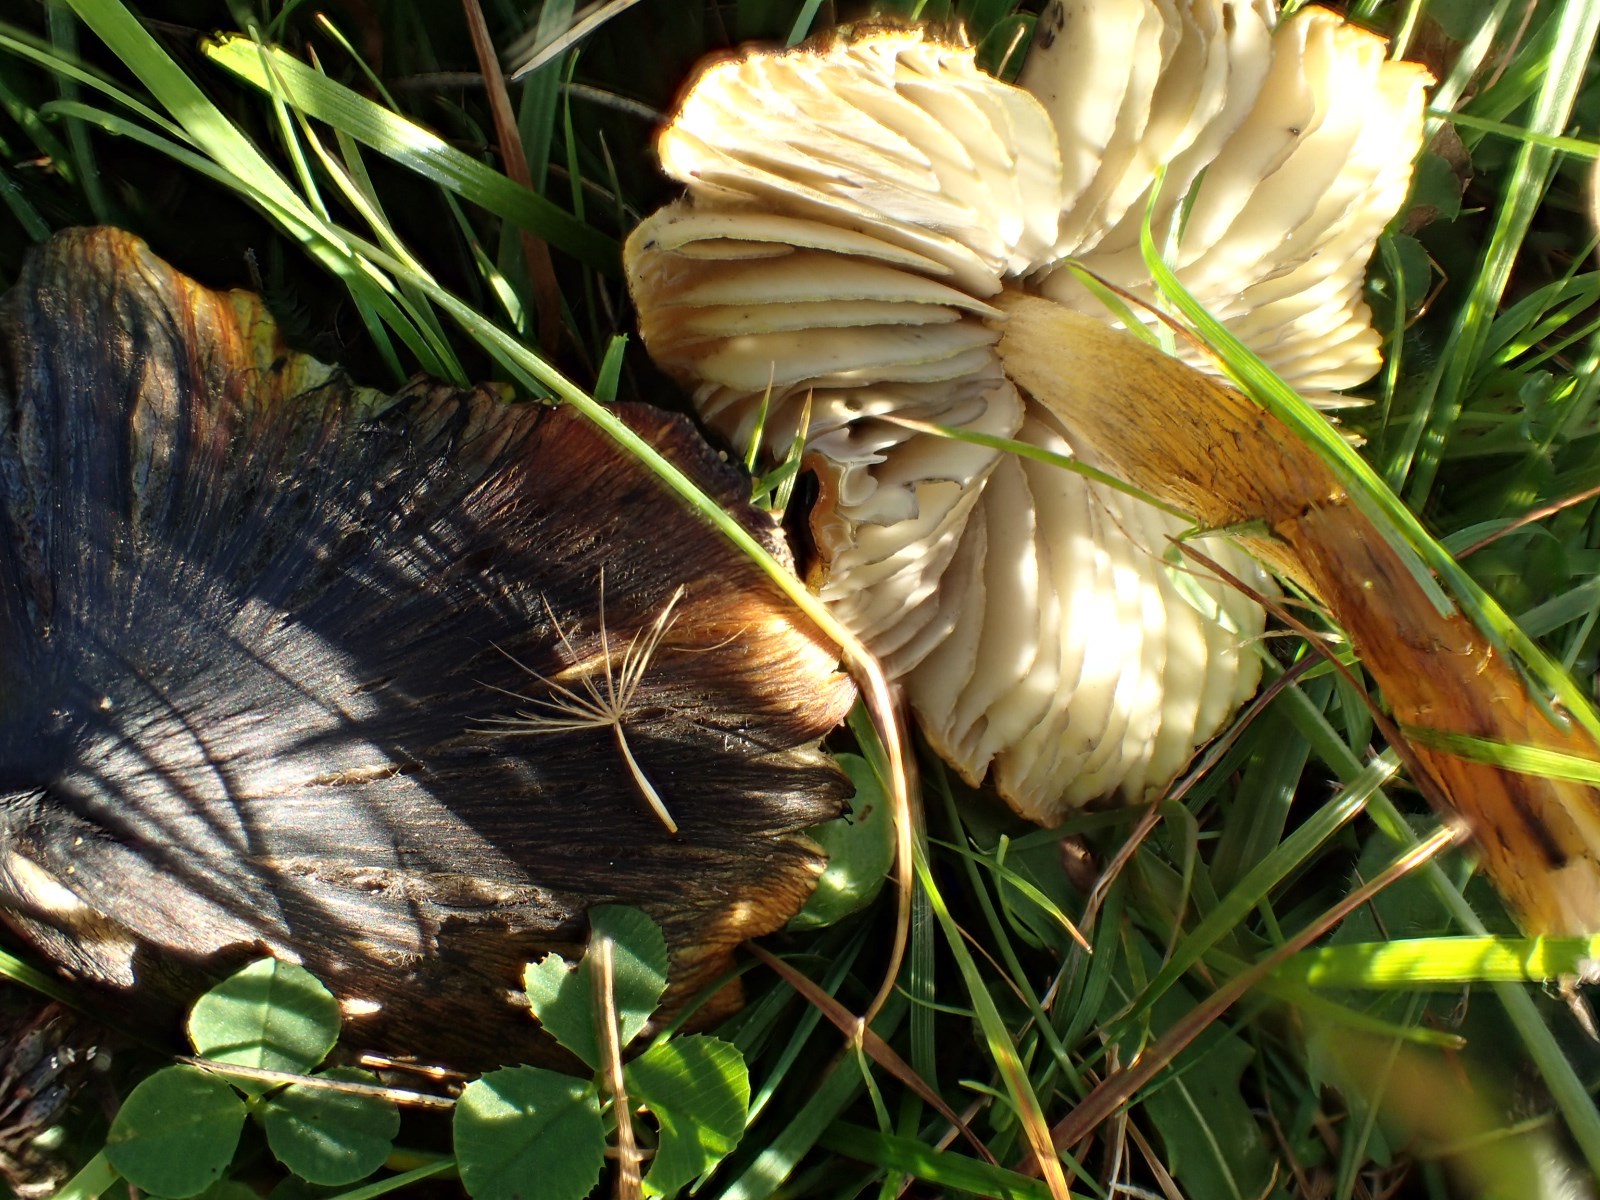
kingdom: Fungi
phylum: Basidiomycota
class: Agaricomycetes
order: Agaricales
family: Hygrophoraceae
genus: Hygrocybe
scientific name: Hygrocybe conica
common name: kegle-vokshat
